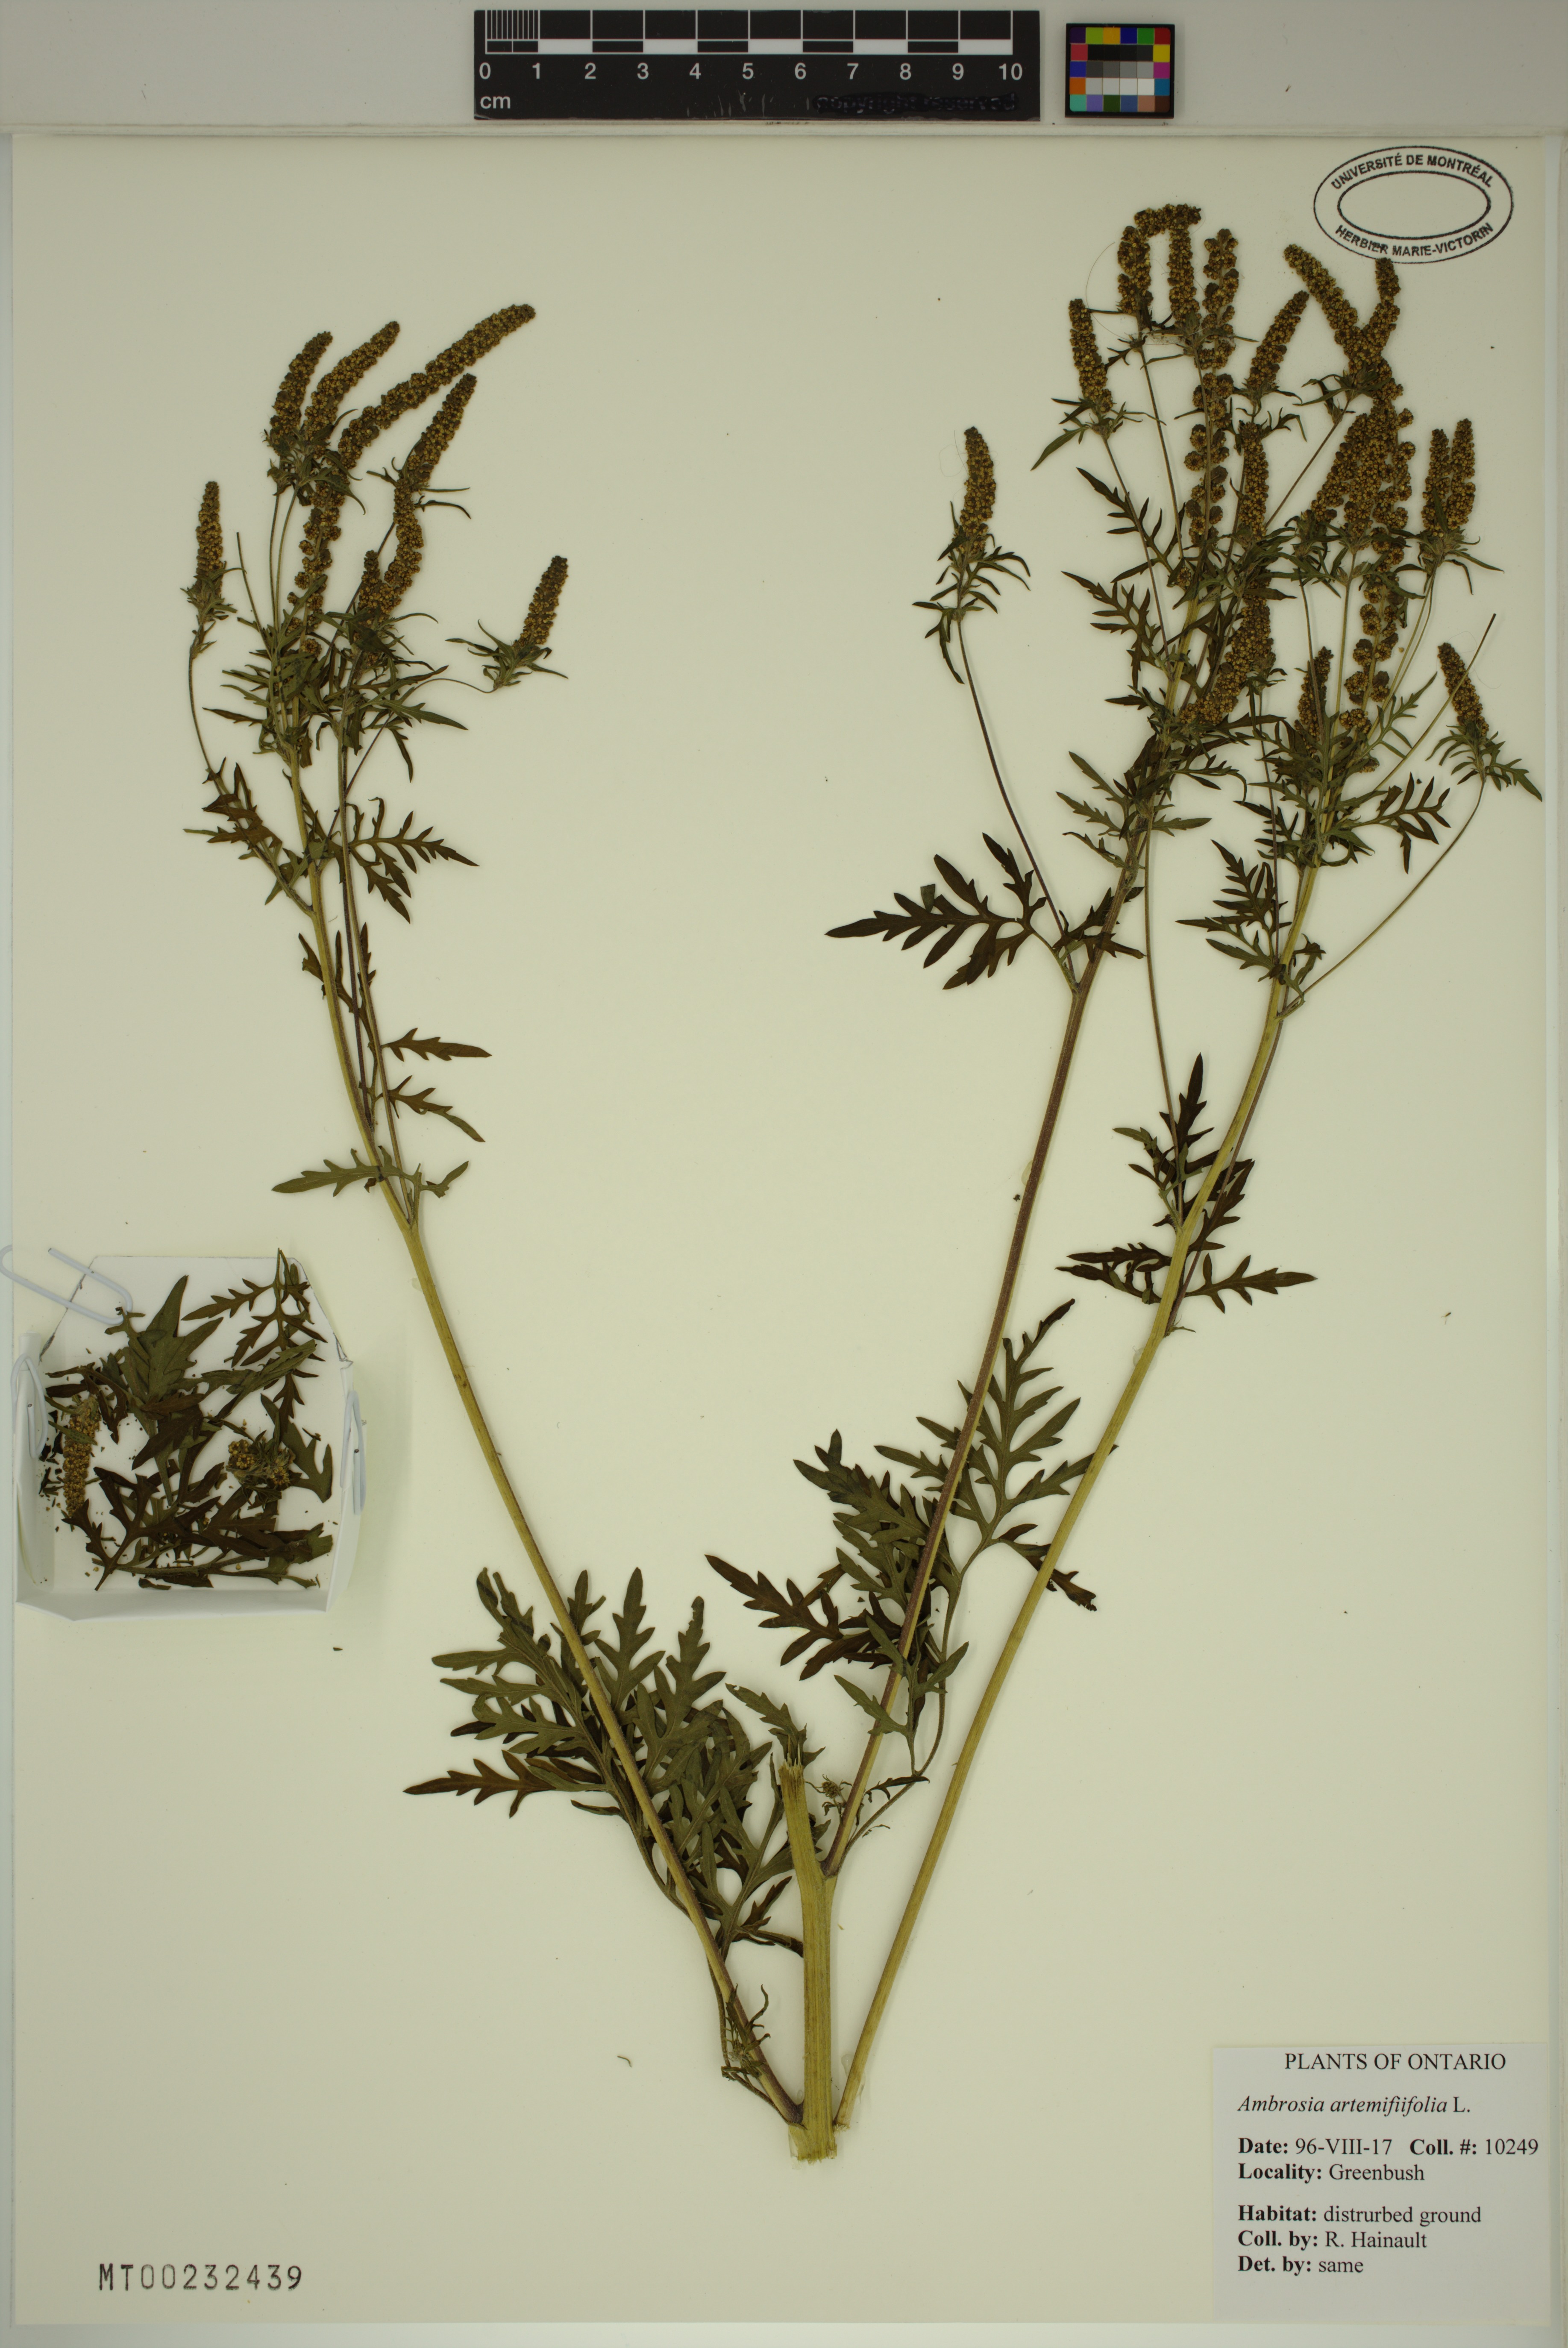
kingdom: Plantae
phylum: Tracheophyta
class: Magnoliopsida
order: Asterales
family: Asteraceae
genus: Ambrosia
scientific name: Ambrosia artemisiifolia
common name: Annual ragweed
